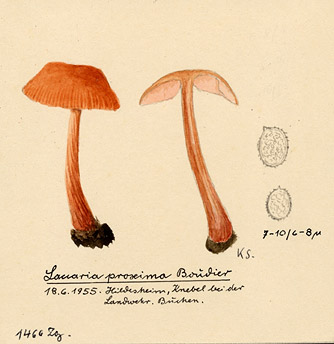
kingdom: Fungi
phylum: Basidiomycota
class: Agaricomycetes
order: Agaricales
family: Hydnangiaceae
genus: Laccaria
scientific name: Laccaria proxima
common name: Scurfy deceiver
